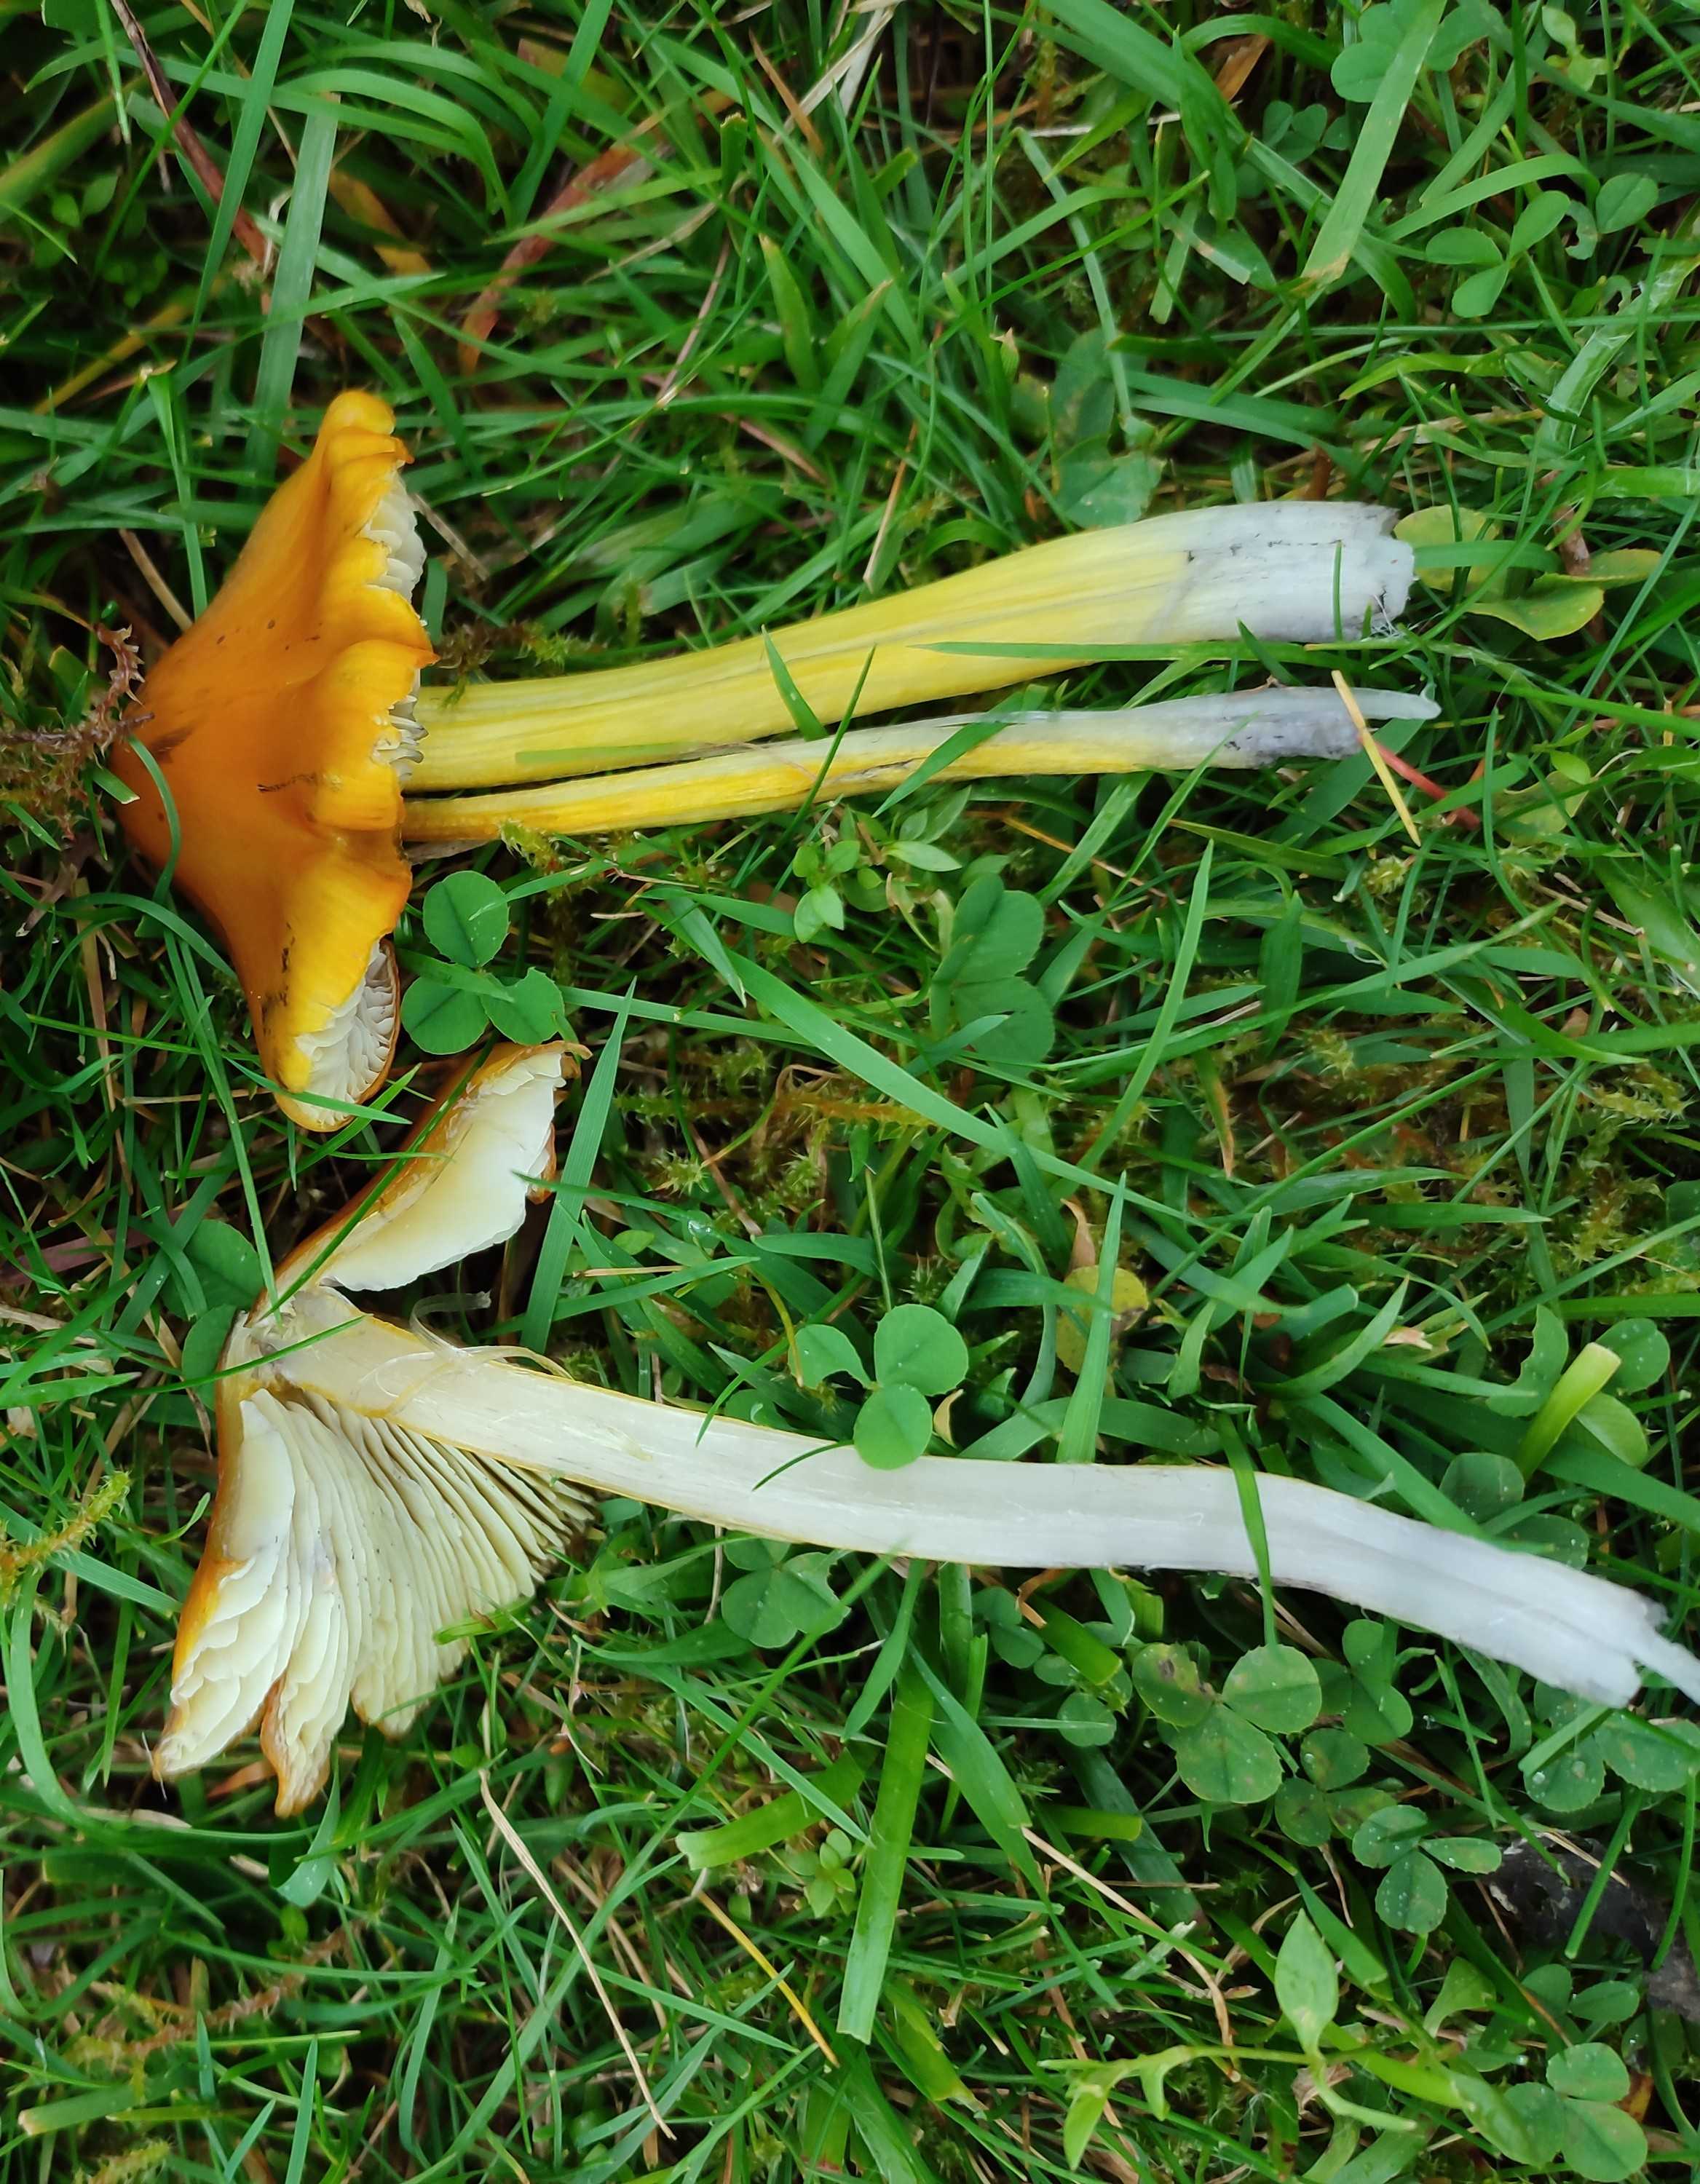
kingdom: Fungi
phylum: Basidiomycota
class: Agaricomycetes
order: Agaricales
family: Hygrophoraceae
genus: Hygrocybe
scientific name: Hygrocybe conica
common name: kegle-vokshat
